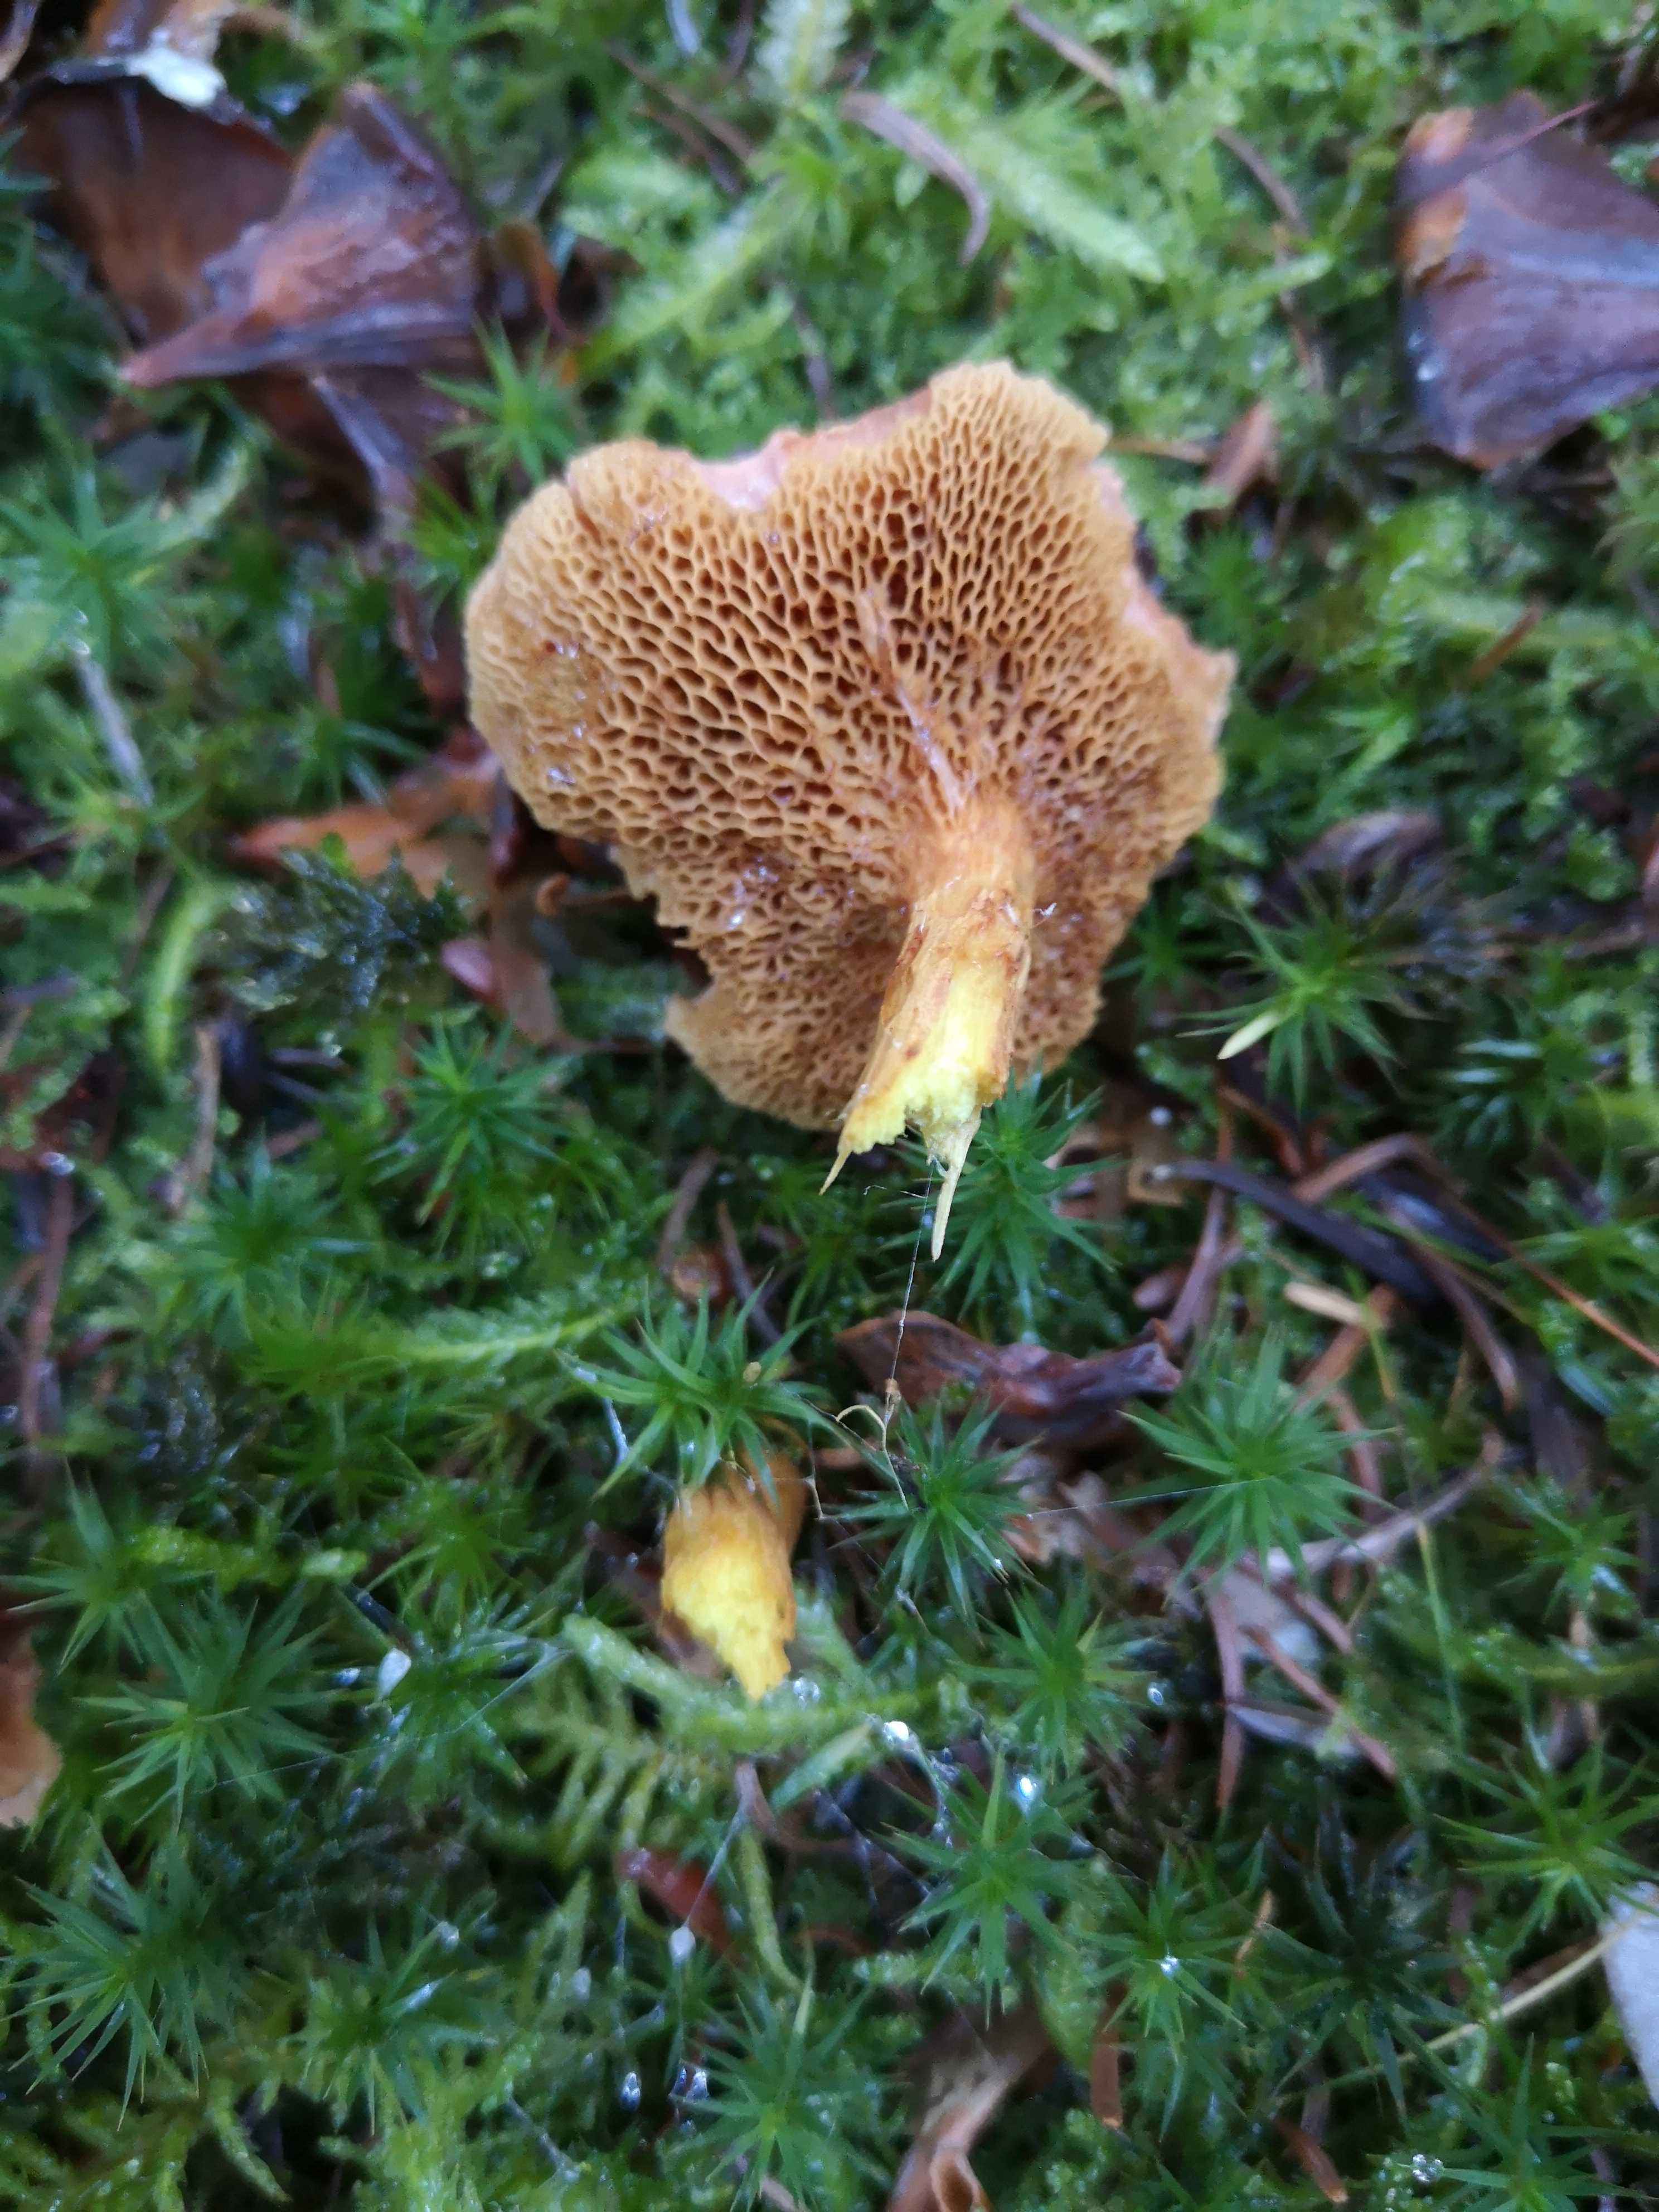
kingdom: Fungi
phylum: Basidiomycota
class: Agaricomycetes
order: Boletales
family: Boletaceae
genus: Chalciporus
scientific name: Chalciporus piperatus
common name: peberrørhat
